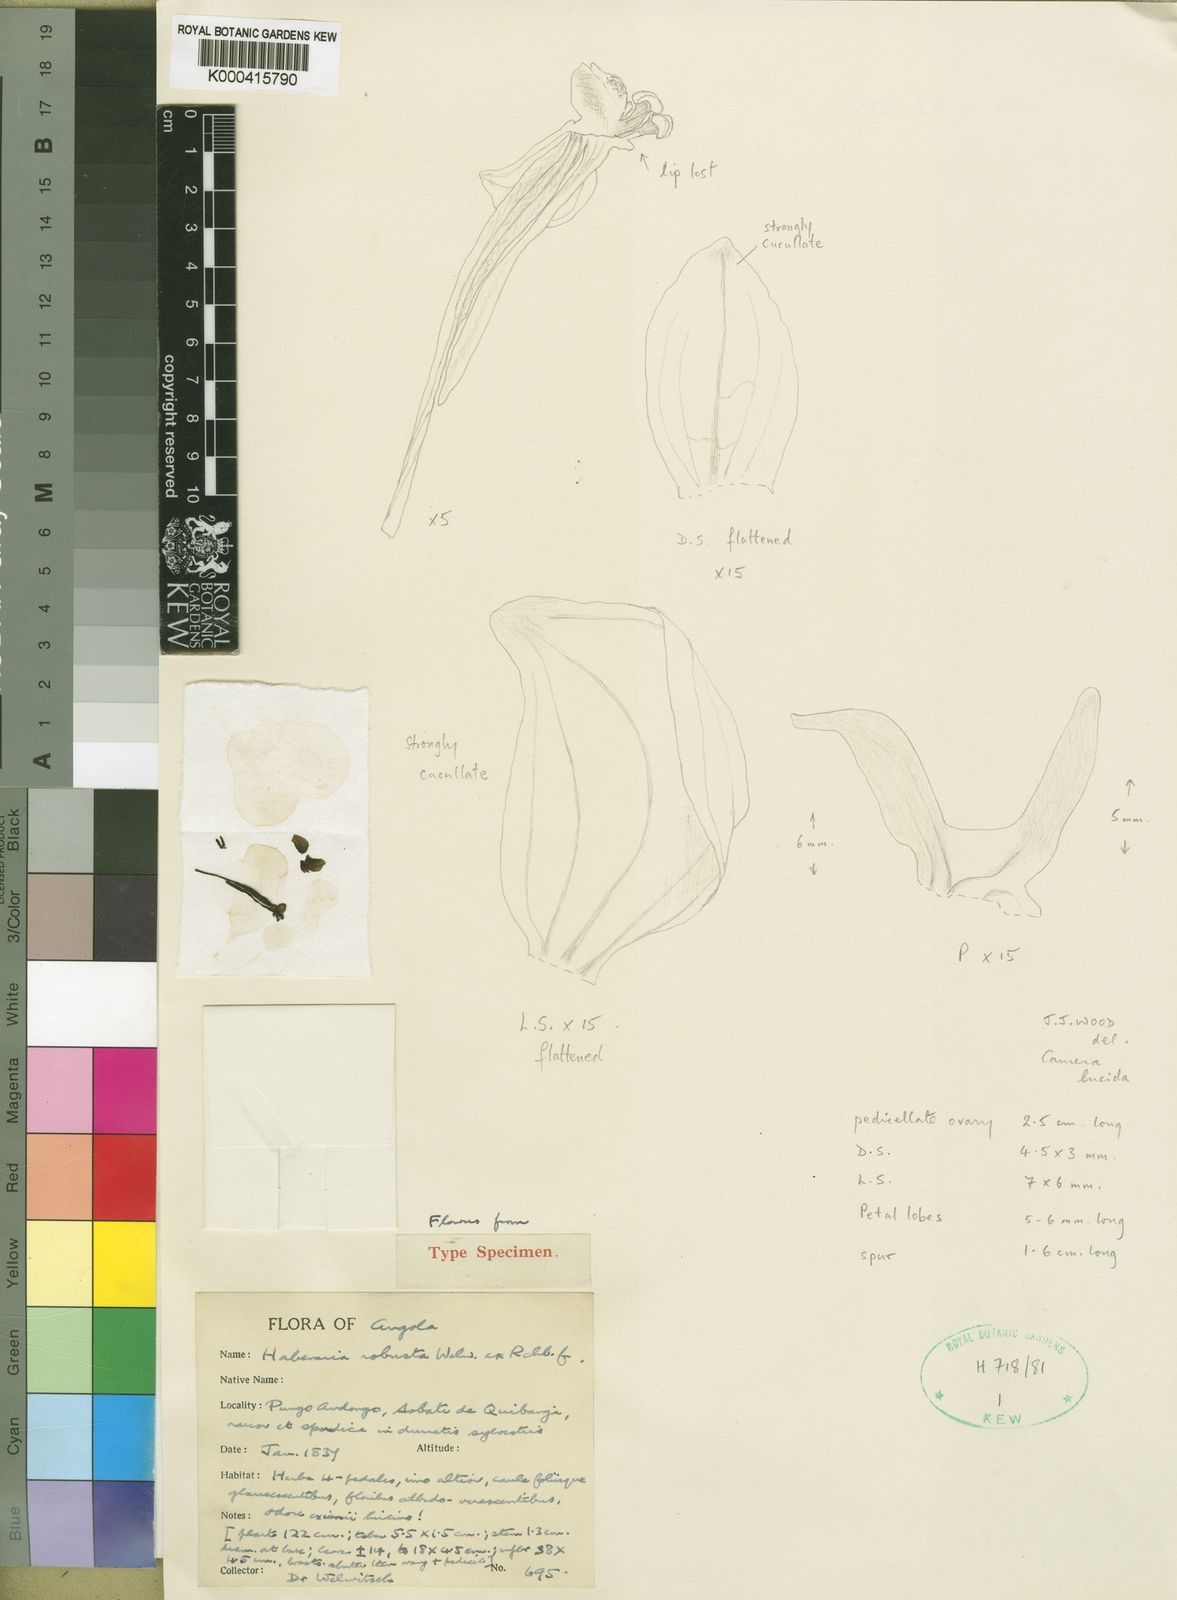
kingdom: Plantae
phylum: Tracheophyta
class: Liliopsida
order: Asparagales
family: Orchidaceae
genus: Habenaria
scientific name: Habenaria robusta
